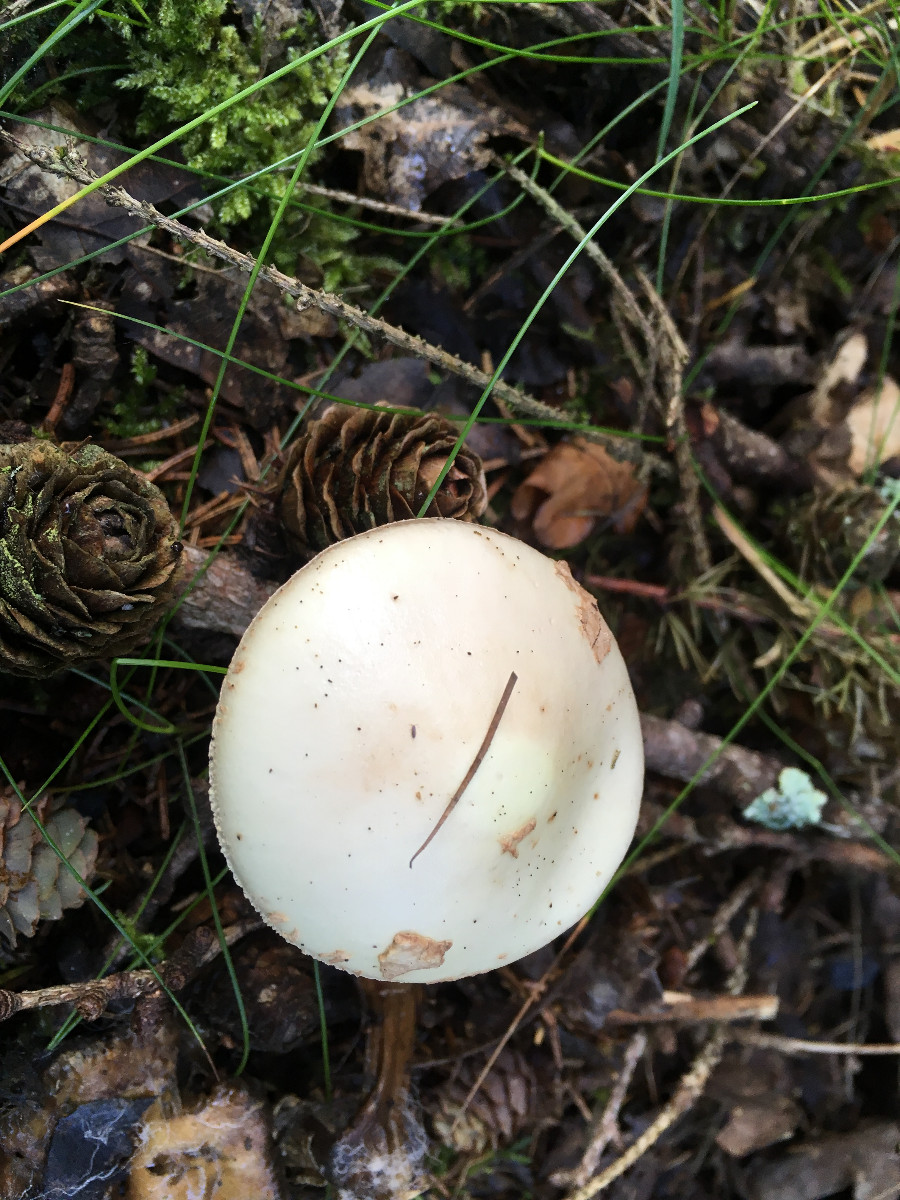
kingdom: Fungi
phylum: Basidiomycota
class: Agaricomycetes
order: Agaricales
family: Amanitaceae
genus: Amanita
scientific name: Amanita citrina
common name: kugleknoldet fluesvamp
